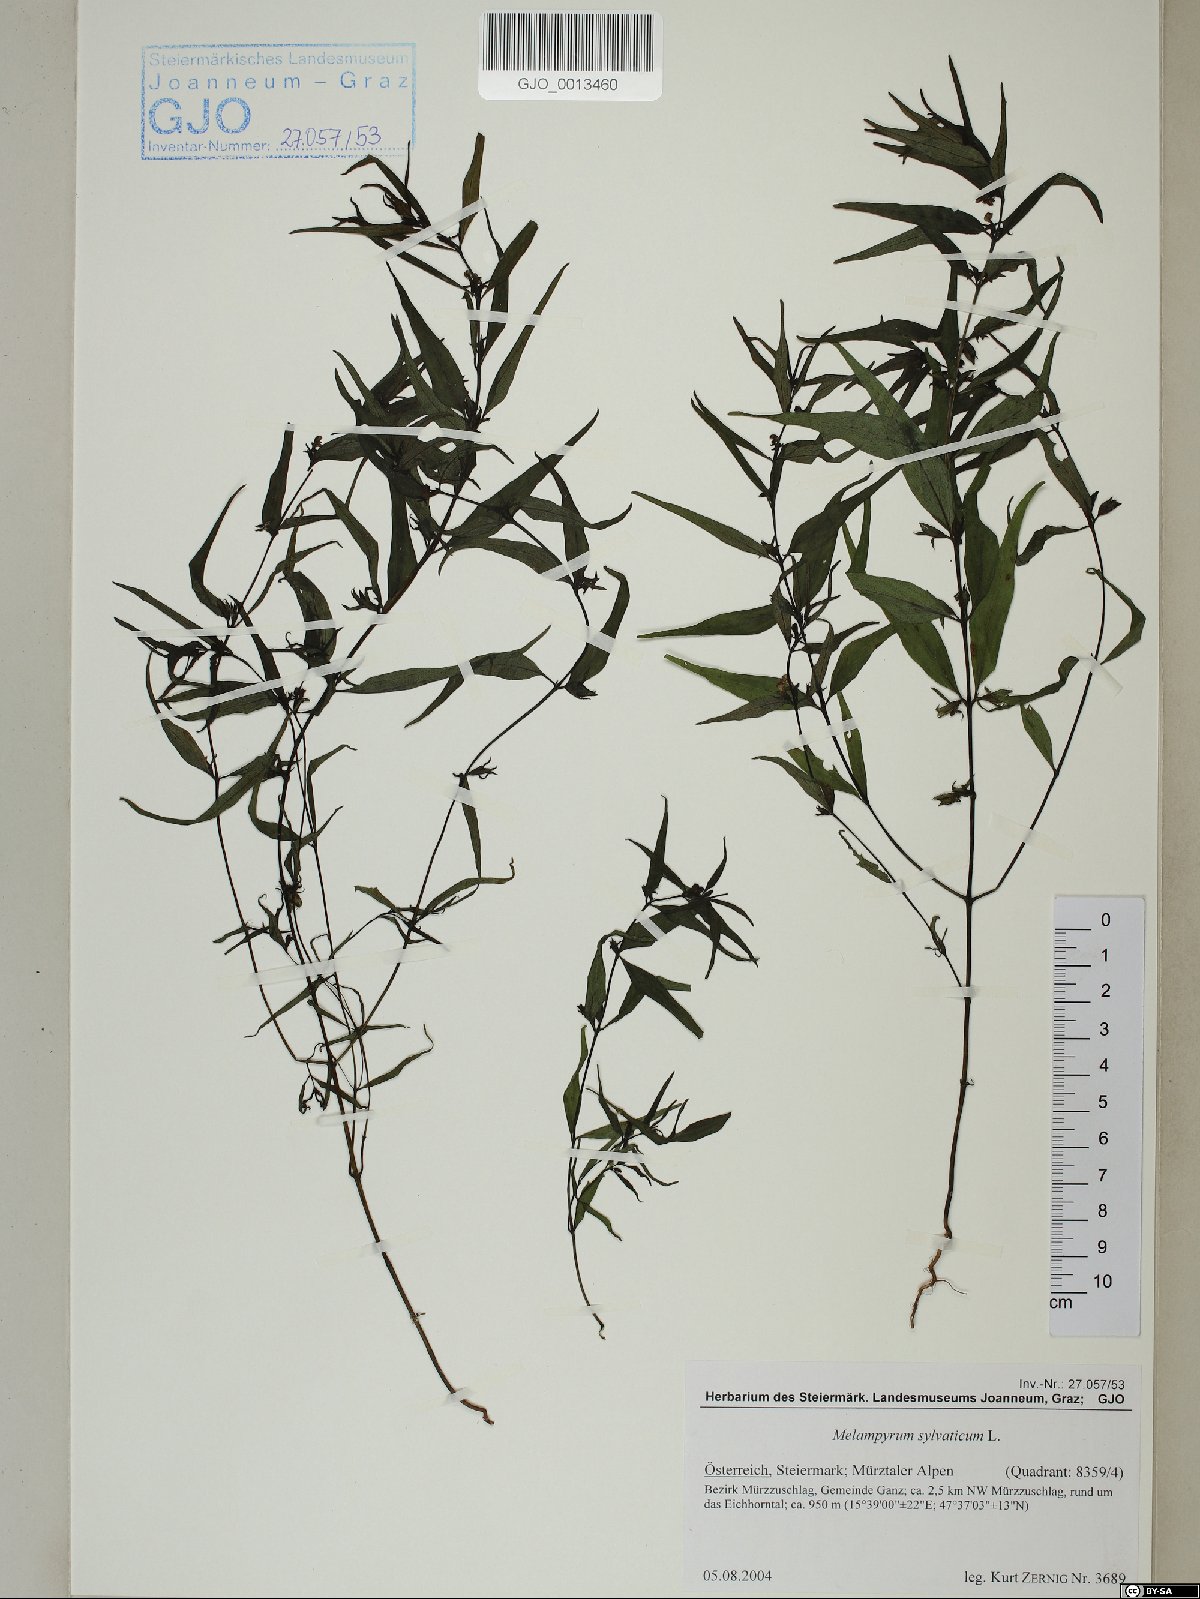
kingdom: Plantae
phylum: Tracheophyta
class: Magnoliopsida
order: Lamiales
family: Orobanchaceae
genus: Melampyrum
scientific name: Melampyrum sylvaticum
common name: Small cow-wheat
